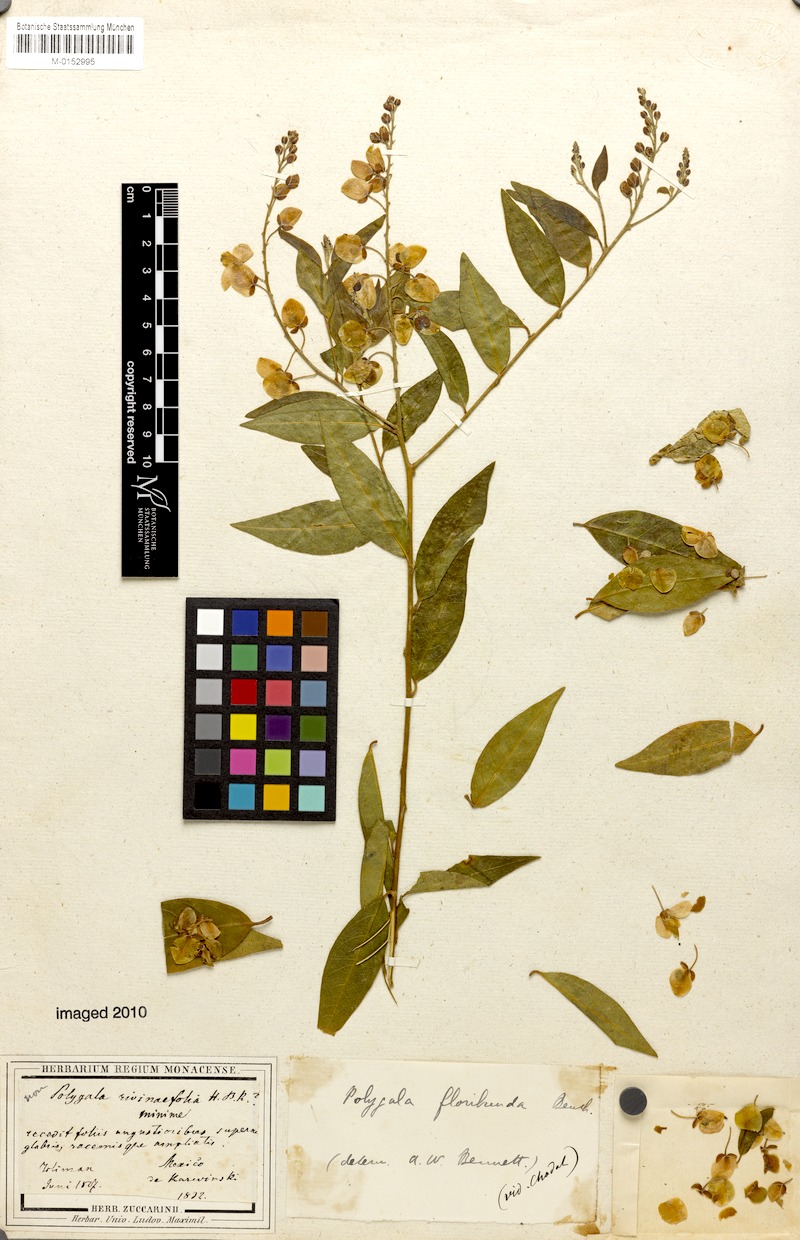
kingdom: Plantae
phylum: Tracheophyta
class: Magnoliopsida
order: Fabales
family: Polygalaceae
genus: Asemeia
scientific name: Asemeia floribunda
